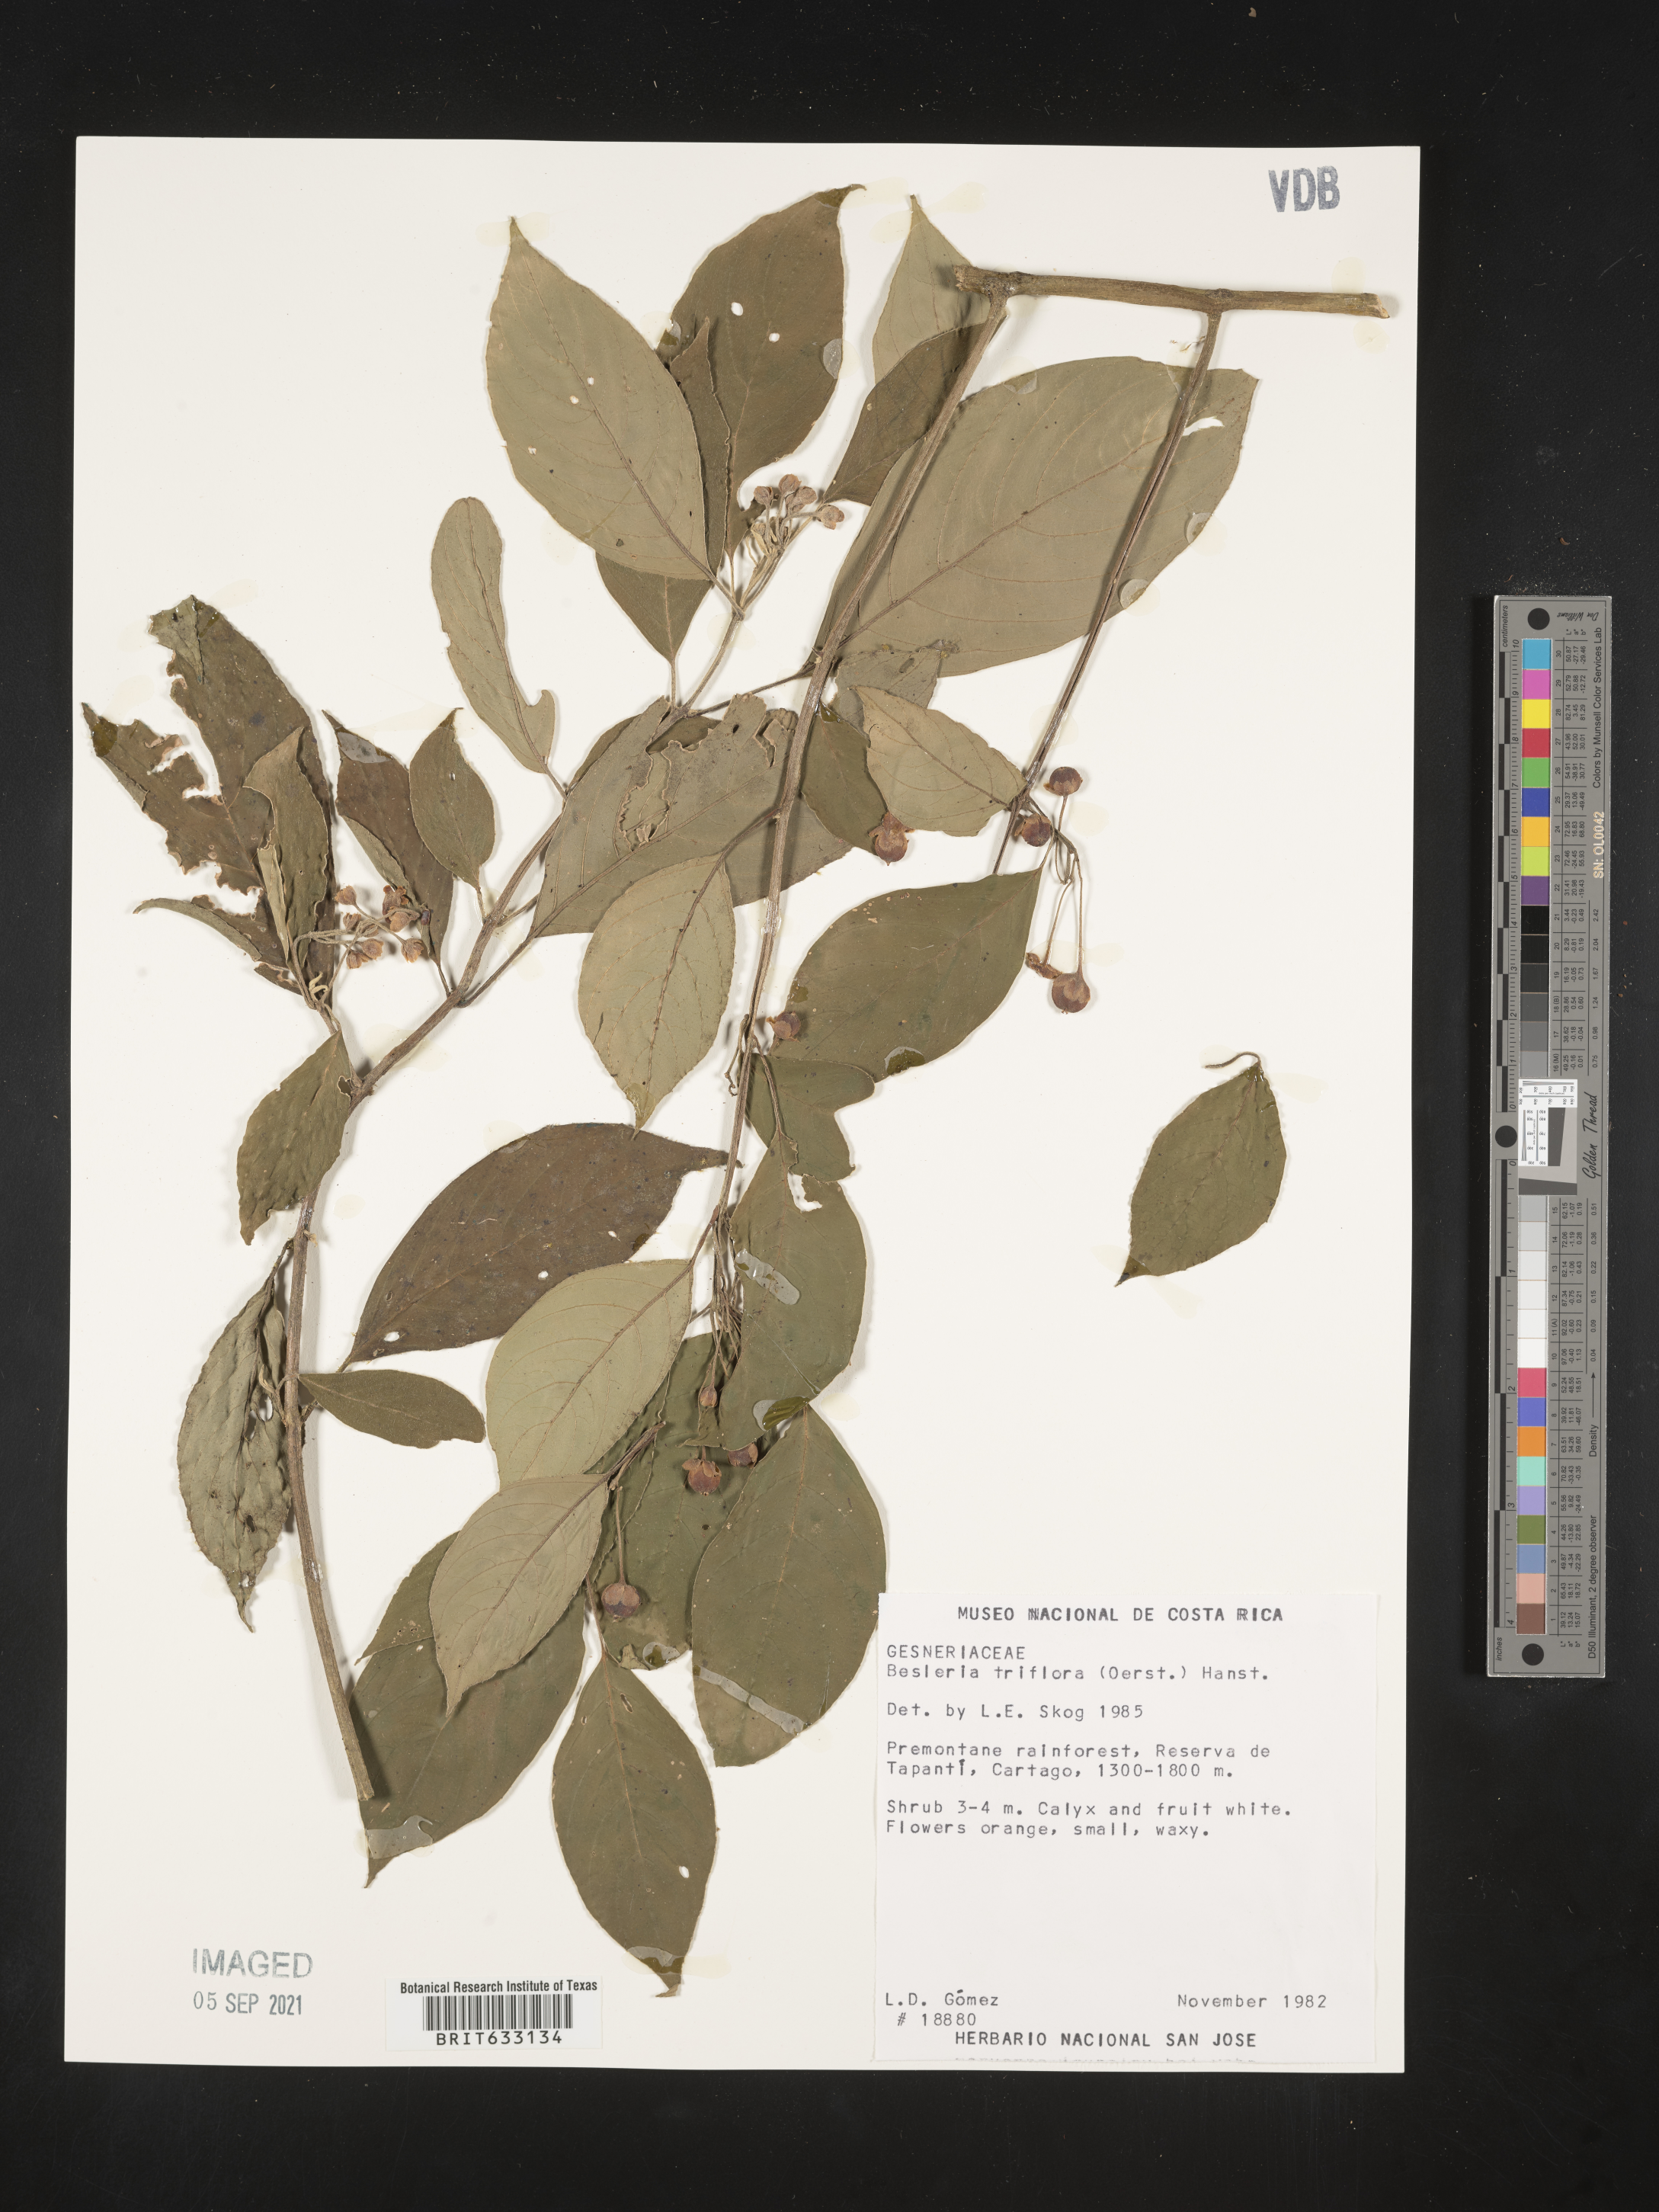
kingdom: Plantae
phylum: Tracheophyta
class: Magnoliopsida
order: Lamiales
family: Gesneriaceae
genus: Besleria
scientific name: Besleria
